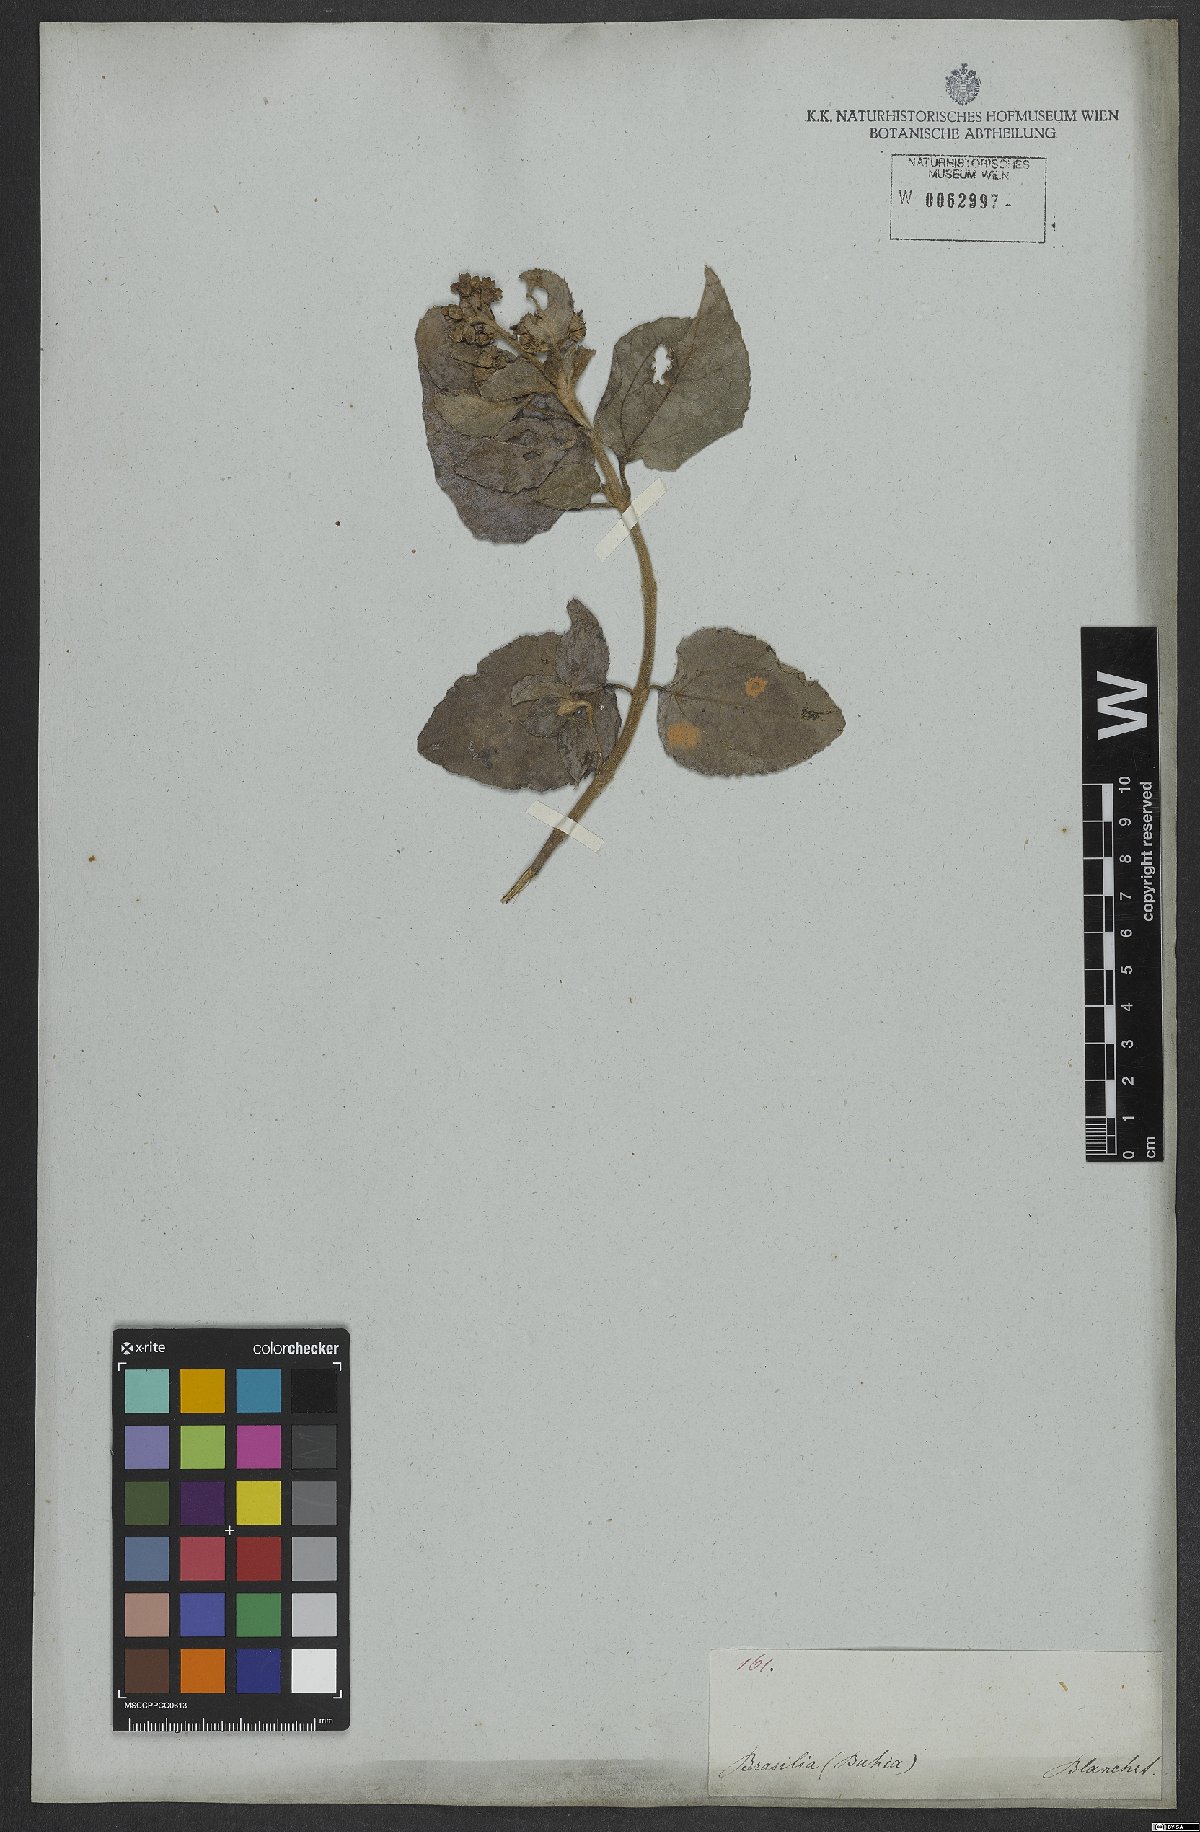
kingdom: Plantae
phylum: Tracheophyta
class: Magnoliopsida
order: Asterales
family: Asteraceae
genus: Clibadium
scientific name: Clibadium armanii
